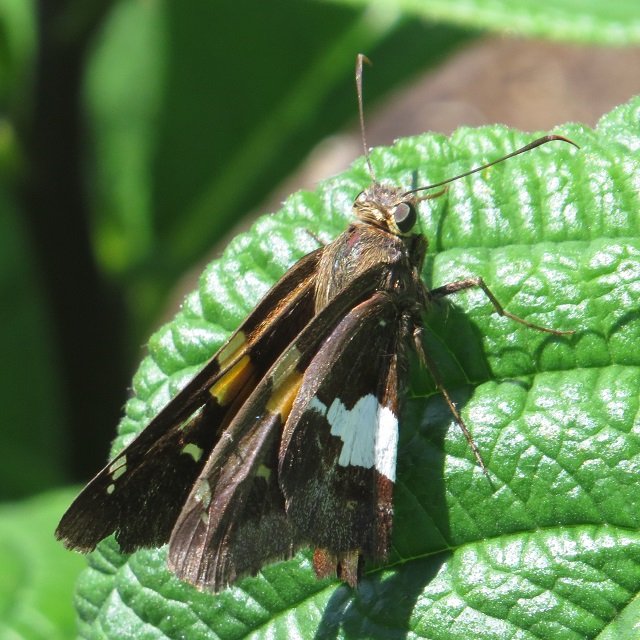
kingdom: Animalia
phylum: Arthropoda
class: Insecta
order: Lepidoptera
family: Hesperiidae
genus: Epargyreus
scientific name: Epargyreus clarus
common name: Silver-spotted Skipper
